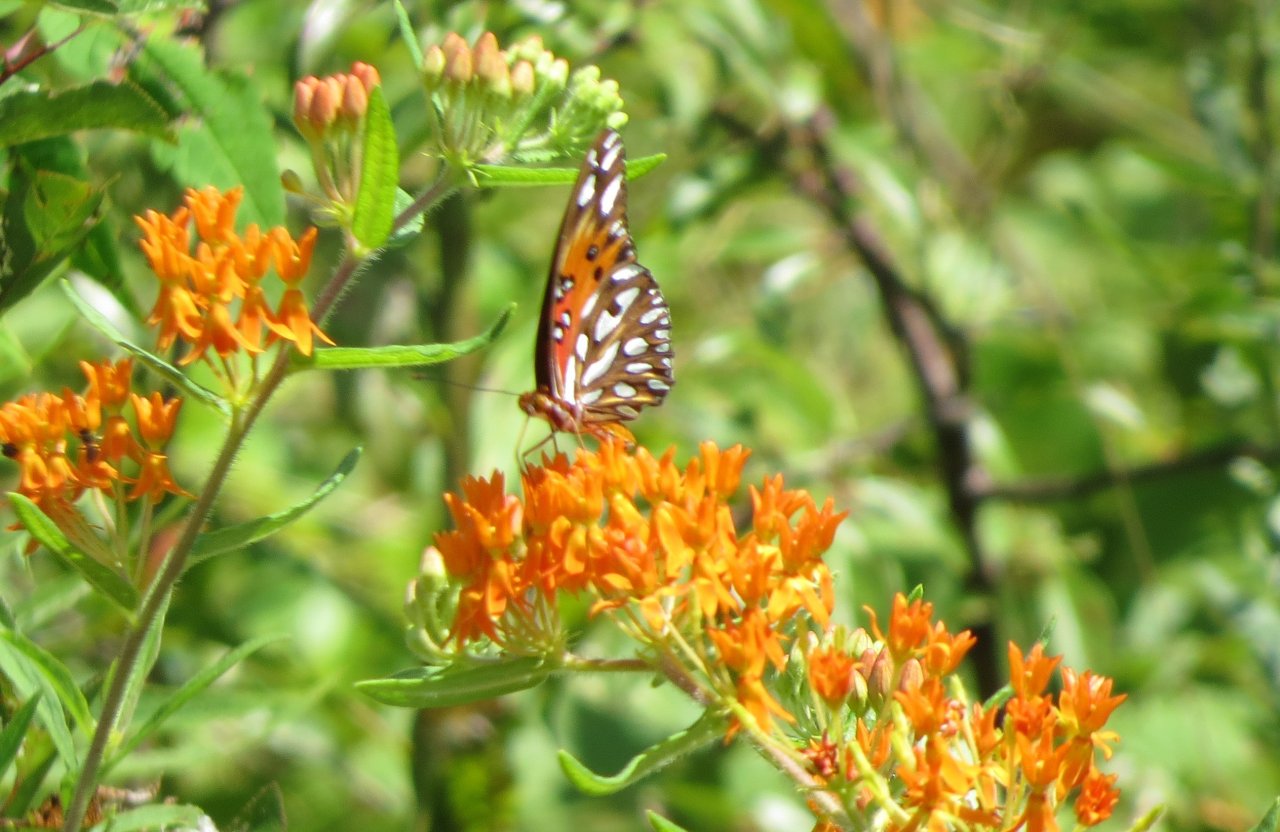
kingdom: Animalia
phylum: Arthropoda
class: Insecta
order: Lepidoptera
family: Nymphalidae
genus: Dione
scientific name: Dione vanillae
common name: Gulf Fritillary
